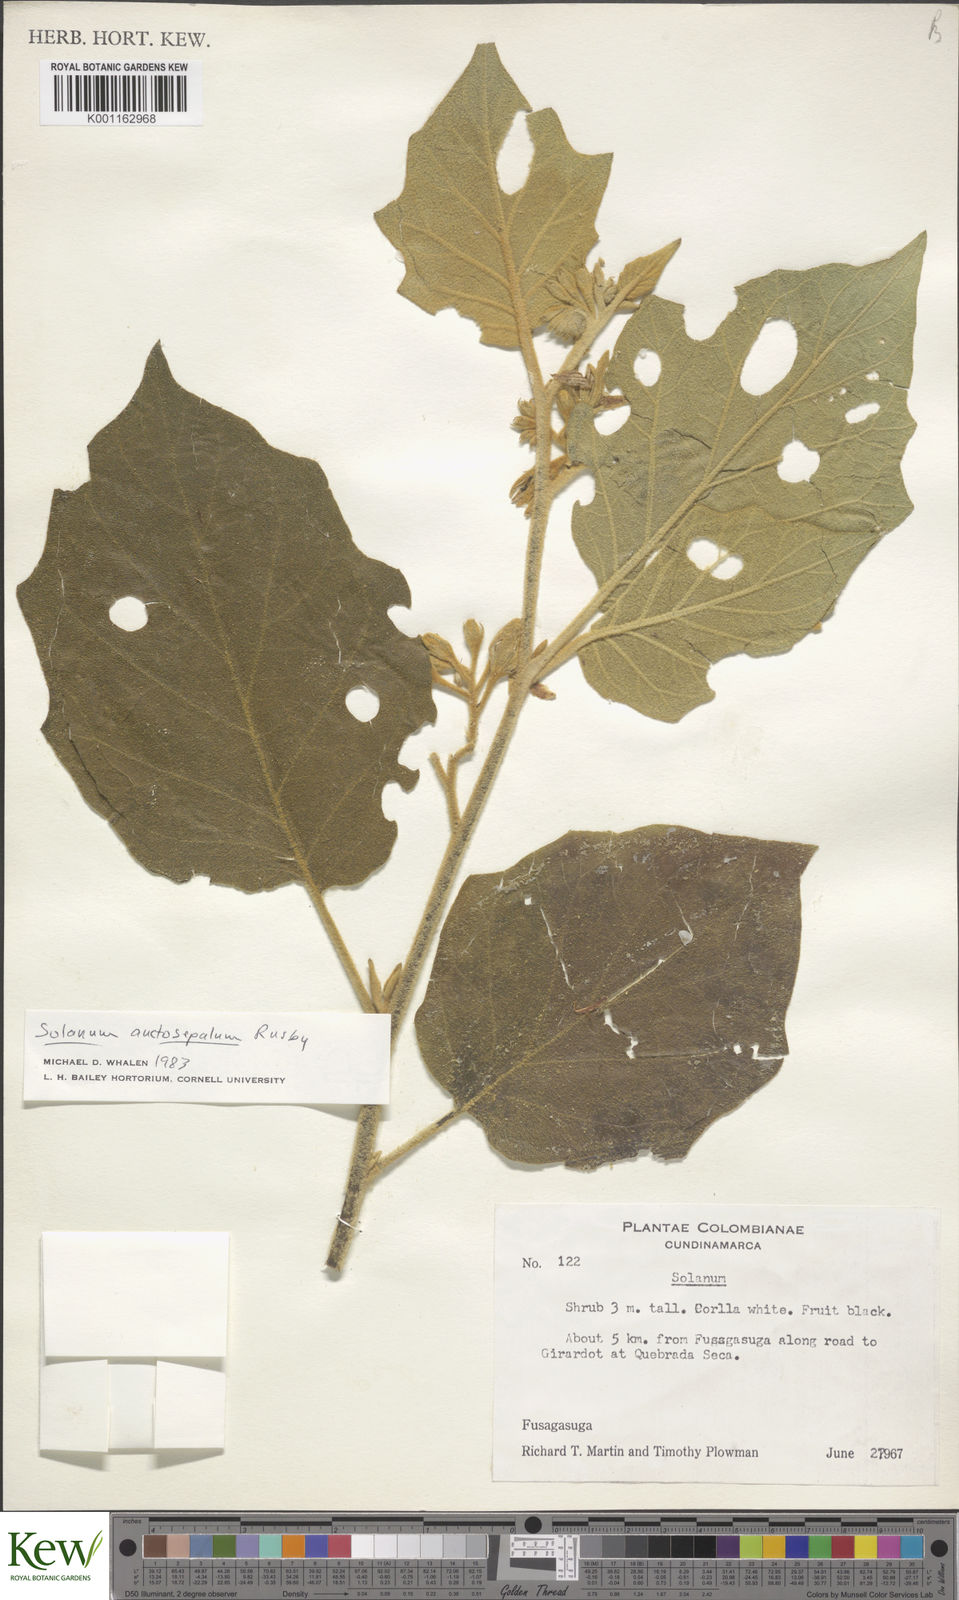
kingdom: Plantae
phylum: Tracheophyta
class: Magnoliopsida
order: Solanales
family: Solanaceae
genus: Solanum
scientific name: Solanum stellatiglandulosum
